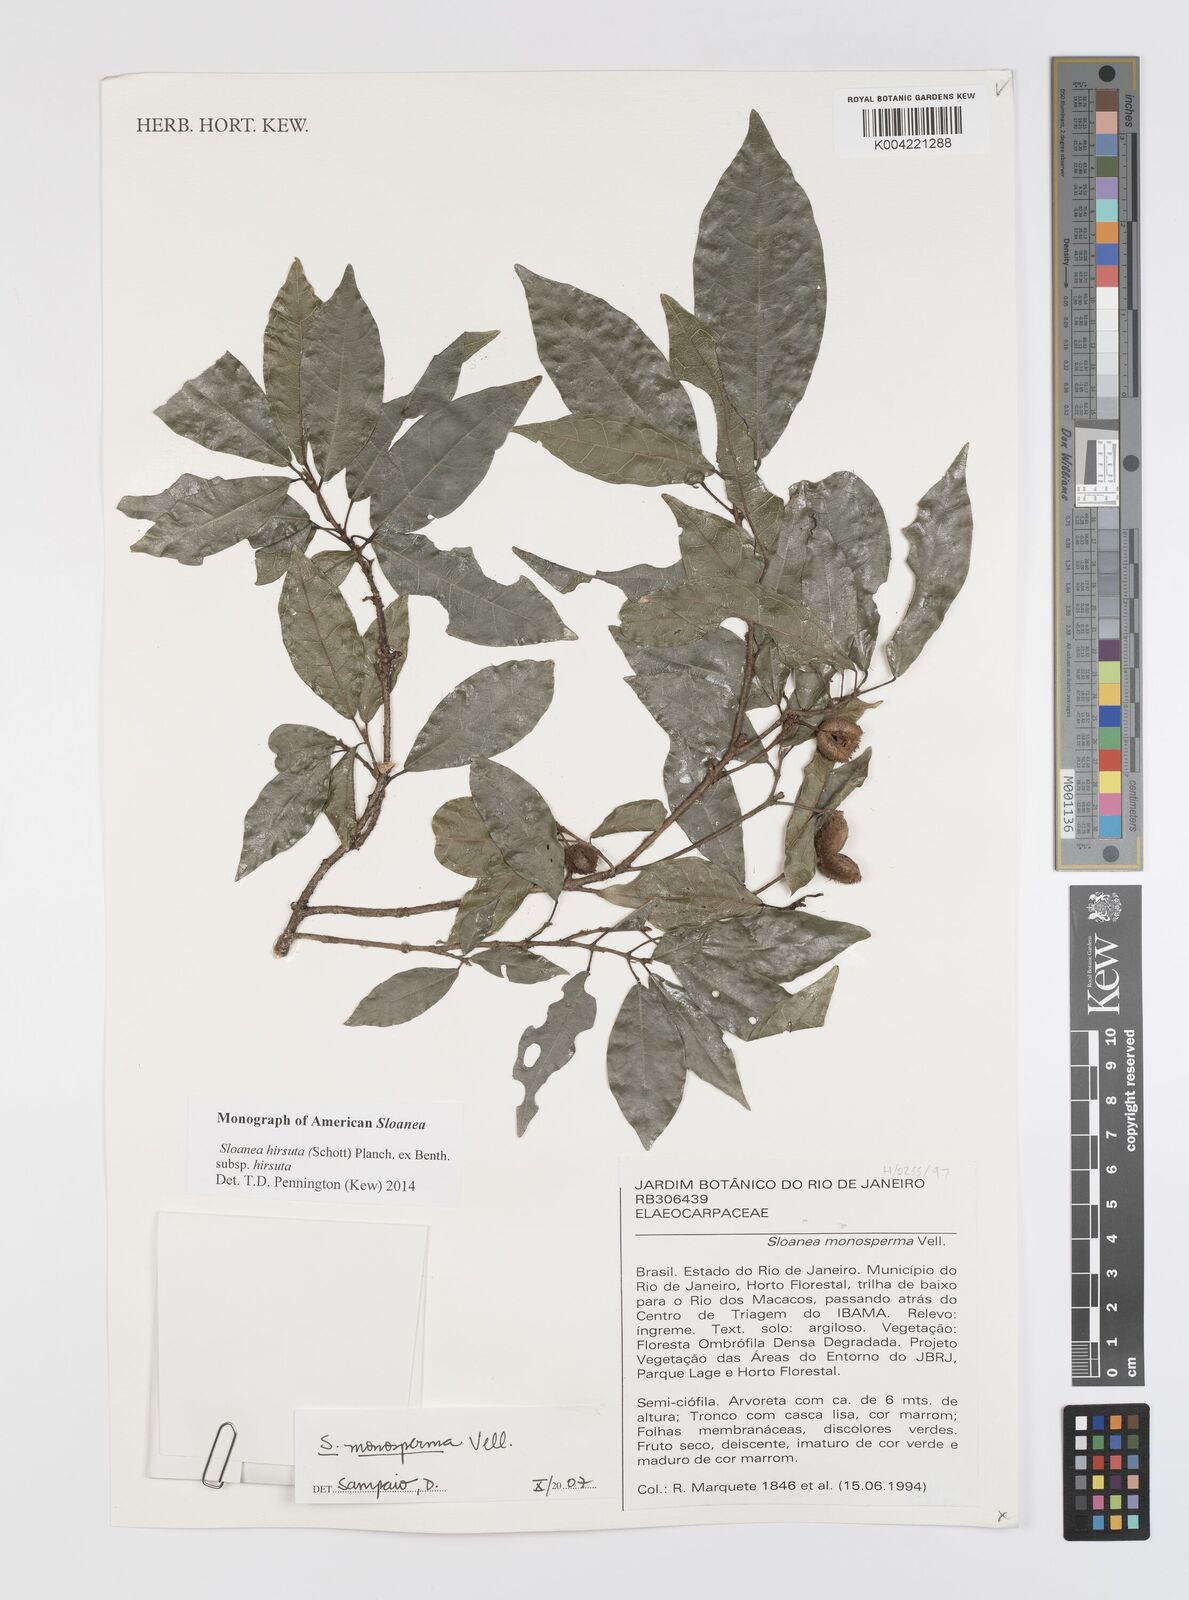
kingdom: Plantae
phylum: Tracheophyta
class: Magnoliopsida
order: Oxalidales
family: Elaeocarpaceae
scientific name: Elaeocarpaceae
